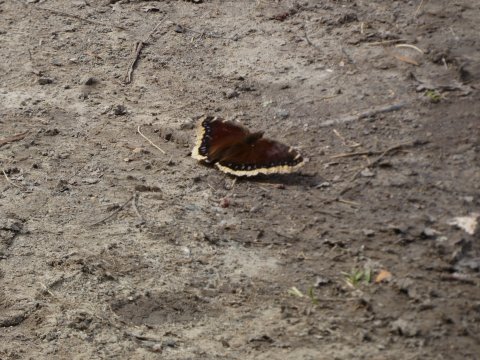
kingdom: Animalia
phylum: Arthropoda
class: Insecta
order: Lepidoptera
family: Nymphalidae
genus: Nymphalis
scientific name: Nymphalis antiopa
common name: Mourning Cloak
